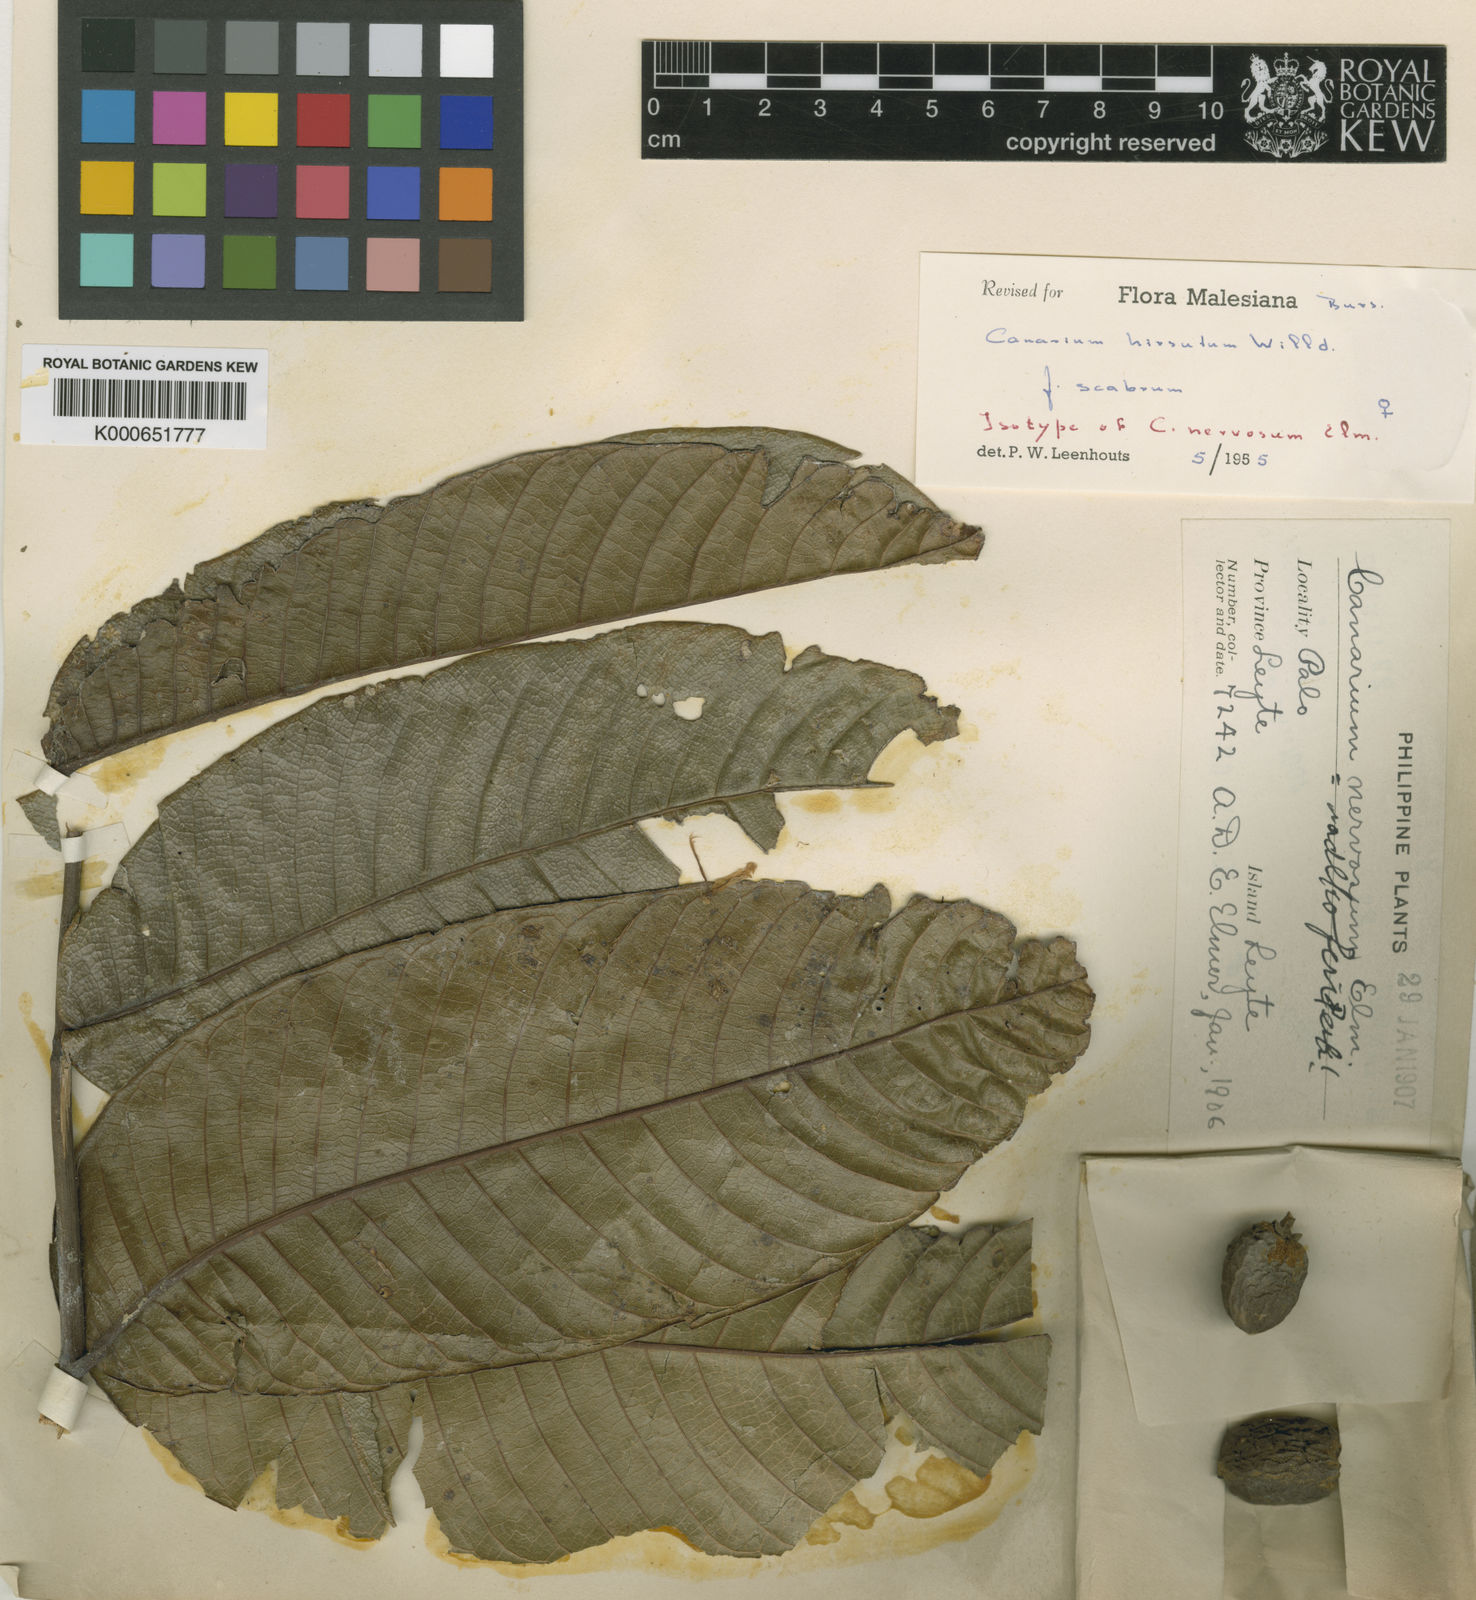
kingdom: Plantae
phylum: Tracheophyta
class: Magnoliopsida
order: Sapindales
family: Burseraceae
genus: Canarium
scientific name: Canarium hirsutum
